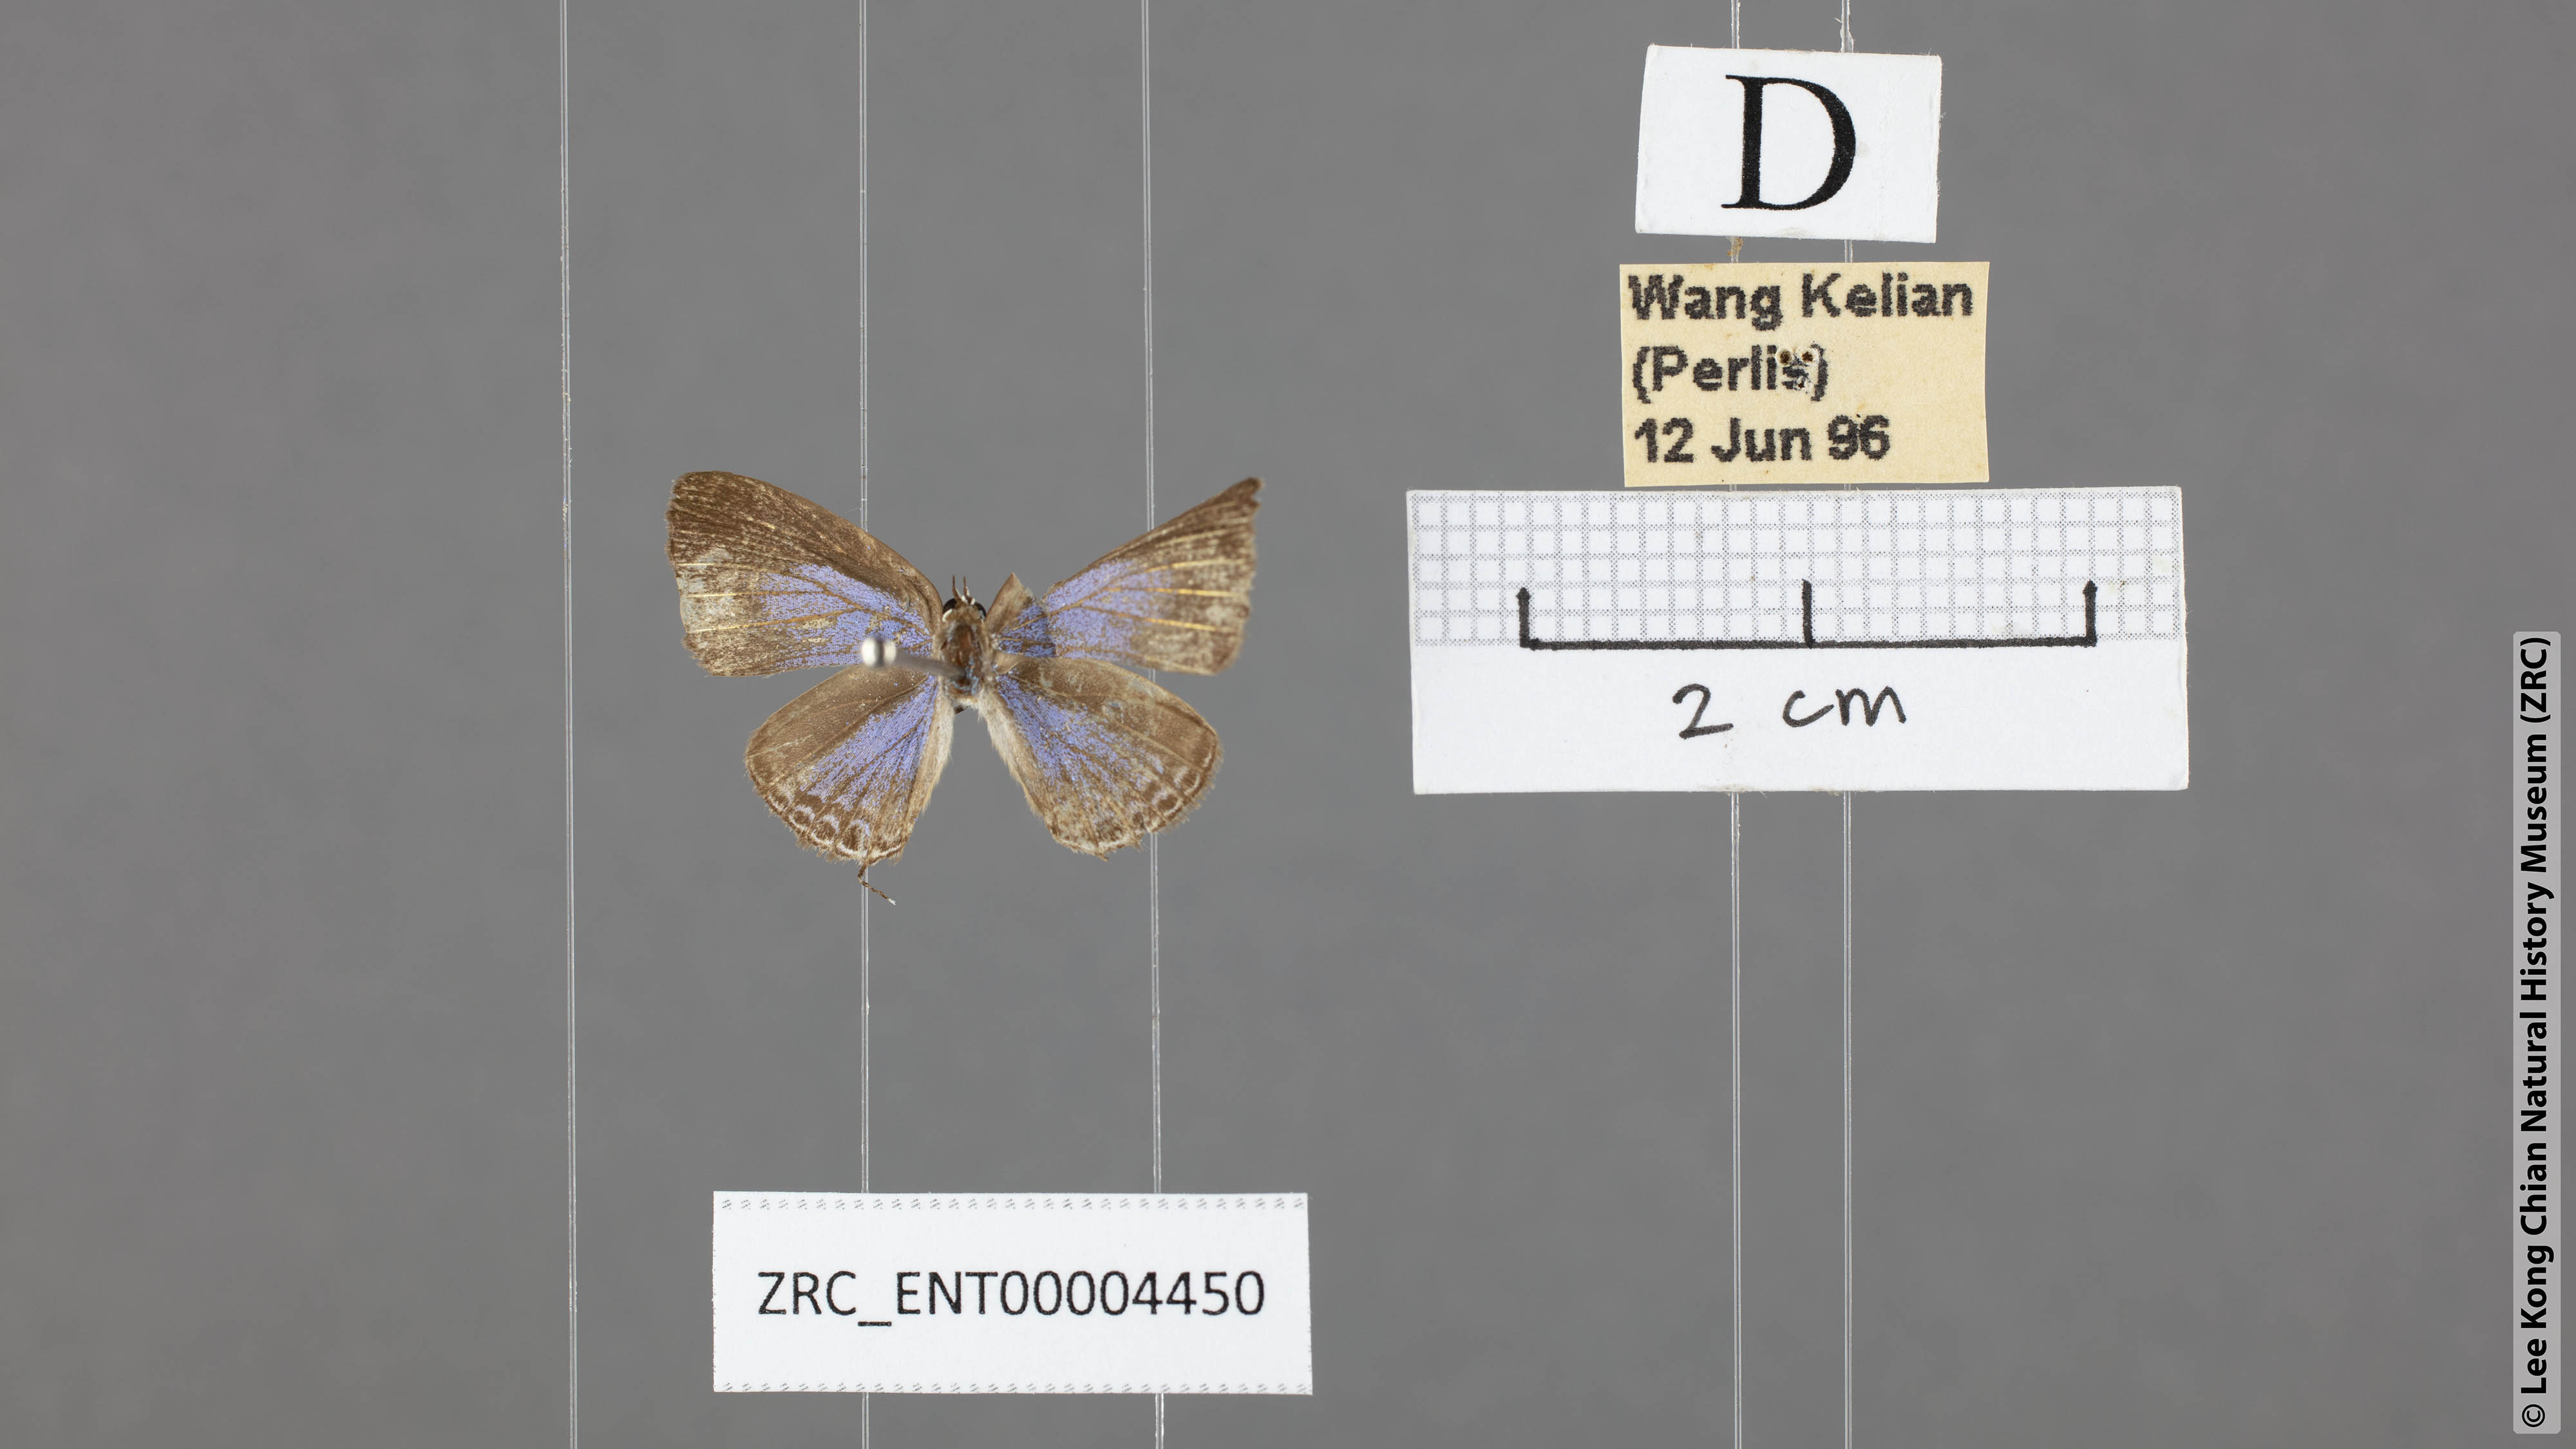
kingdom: Animalia
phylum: Arthropoda
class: Insecta
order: Lepidoptera
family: Lycaenidae
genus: Prosotas
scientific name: Prosotas aluta
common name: Barred lineblue
